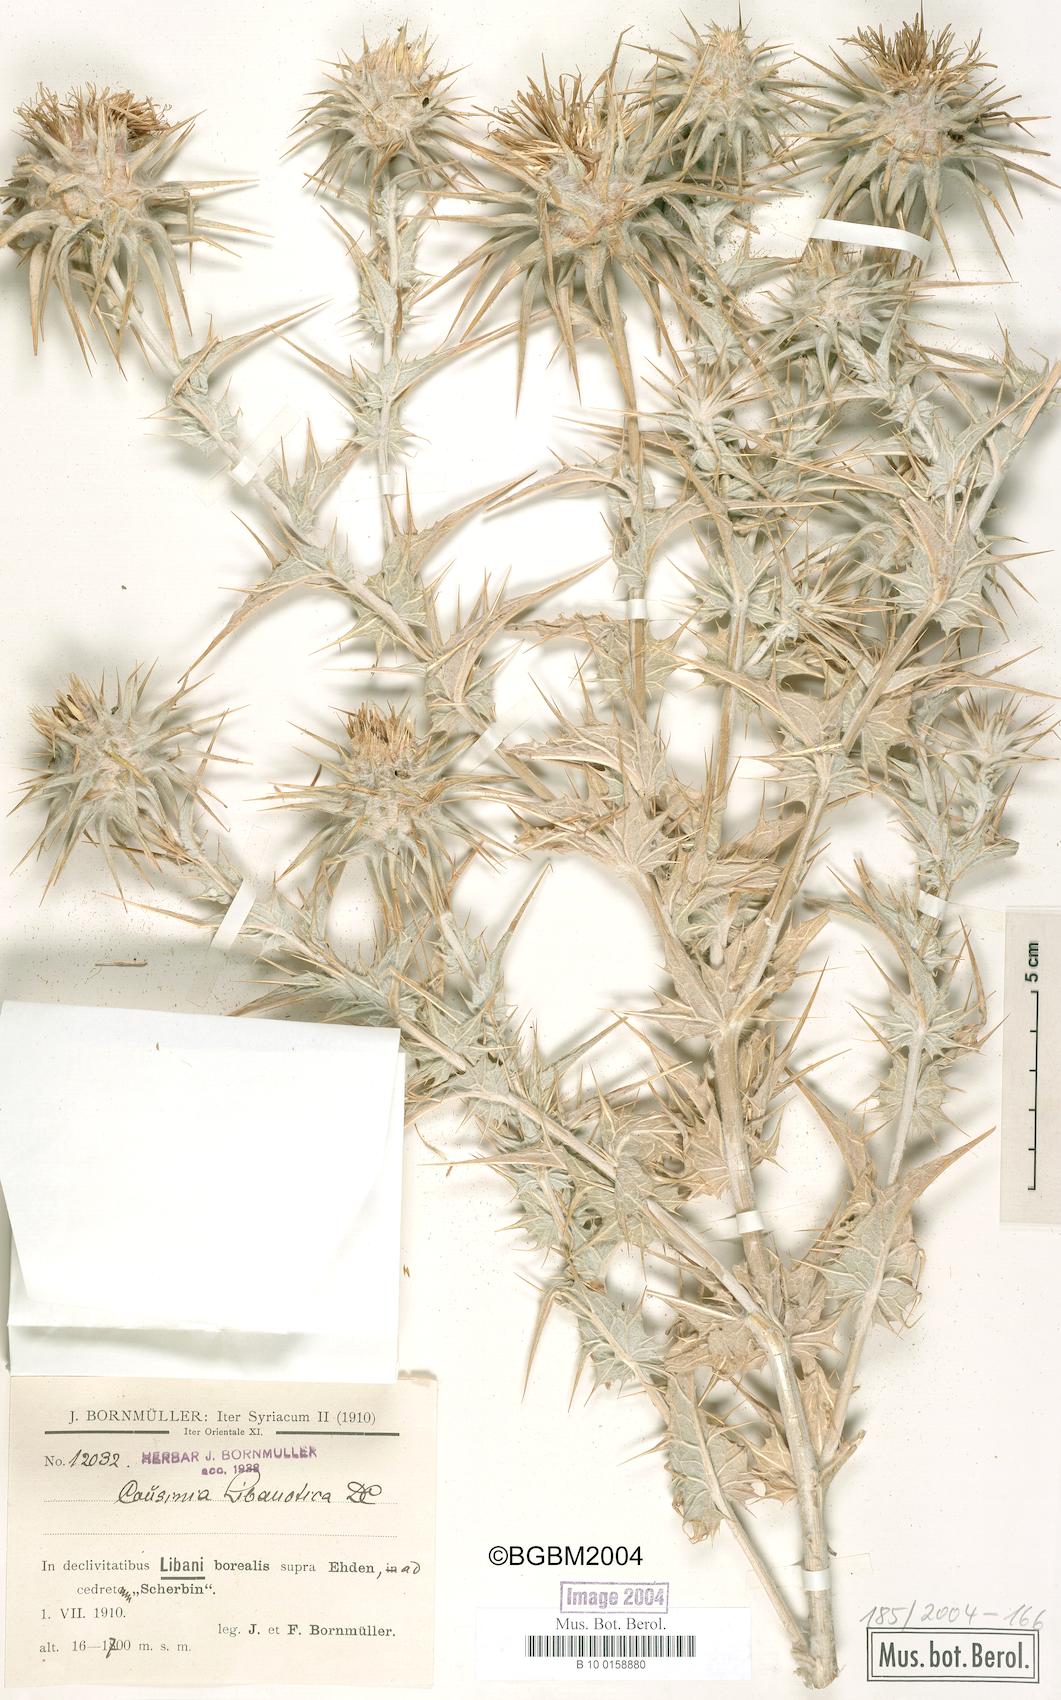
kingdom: Plantae
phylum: Tracheophyta
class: Magnoliopsida
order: Asterales
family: Asteraceae
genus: Cousinia
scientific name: Cousinia libanotica
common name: Lebanon cousinia
